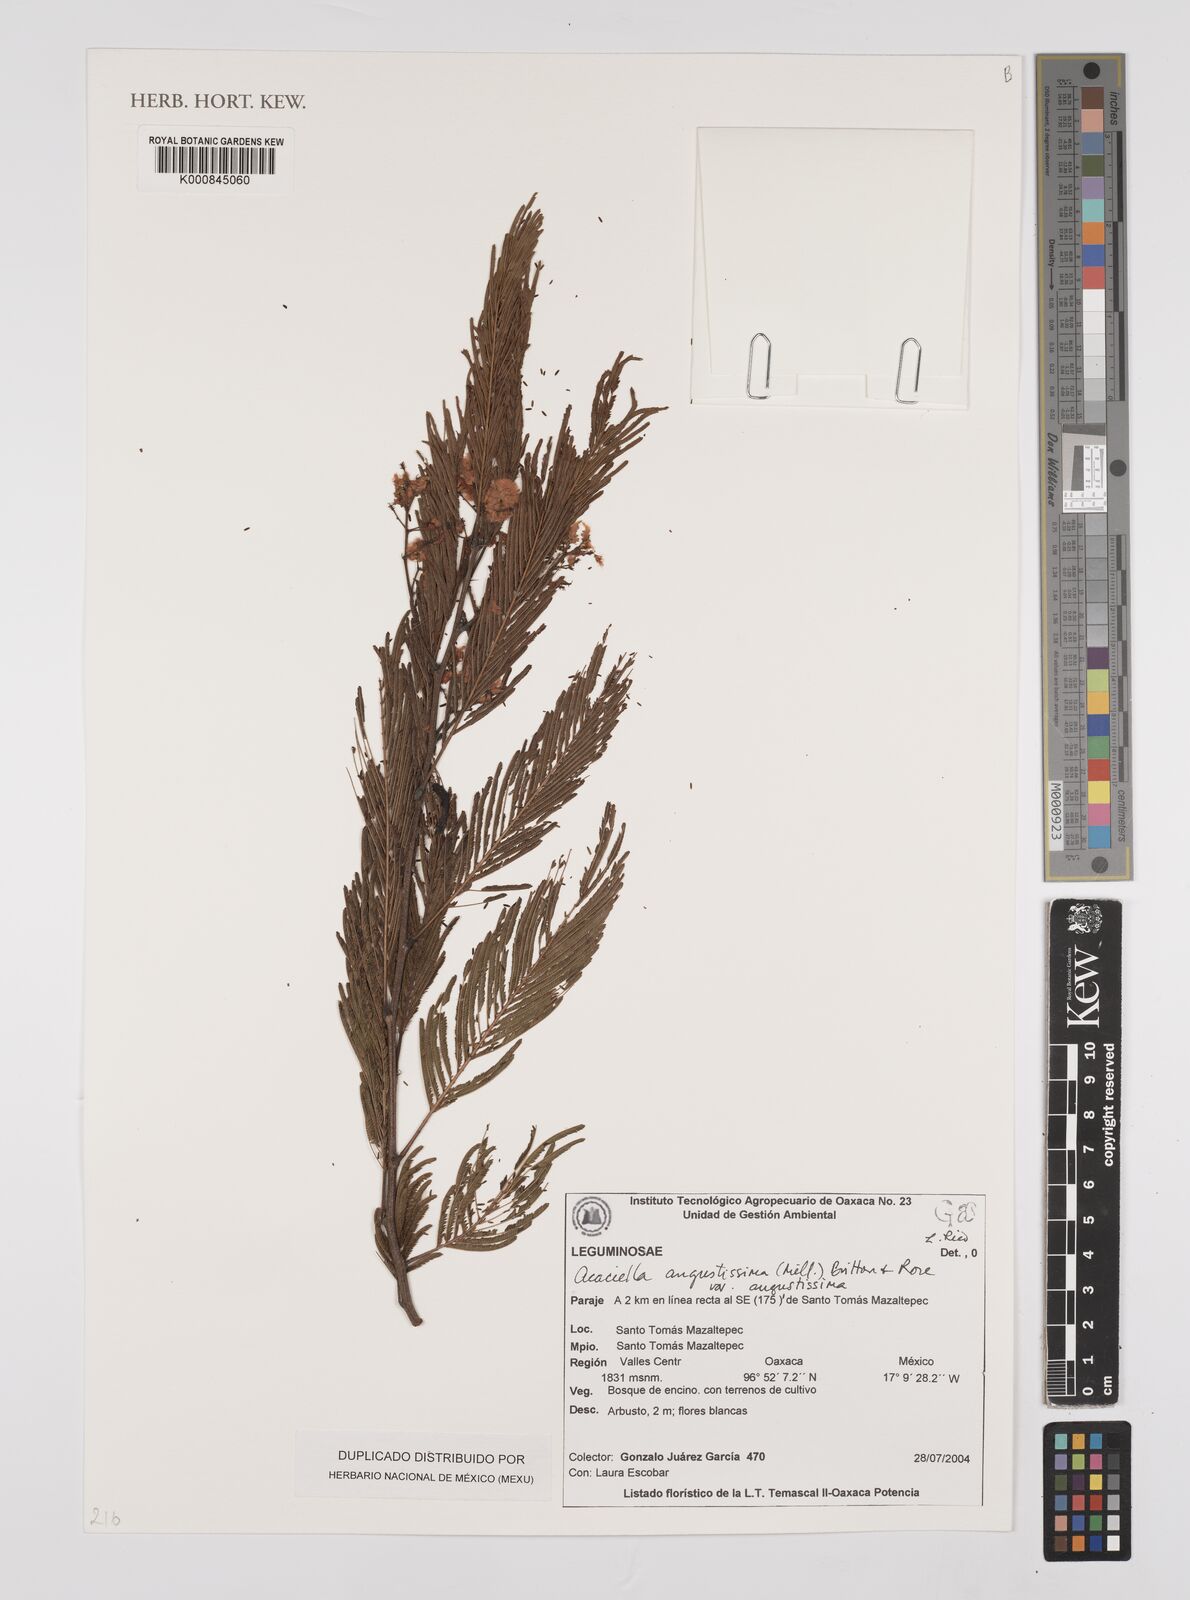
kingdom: Plantae
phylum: Tracheophyta
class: Magnoliopsida
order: Fabales
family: Fabaceae
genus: Acaciella
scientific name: Acaciella angustissima
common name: Prairie acacia
